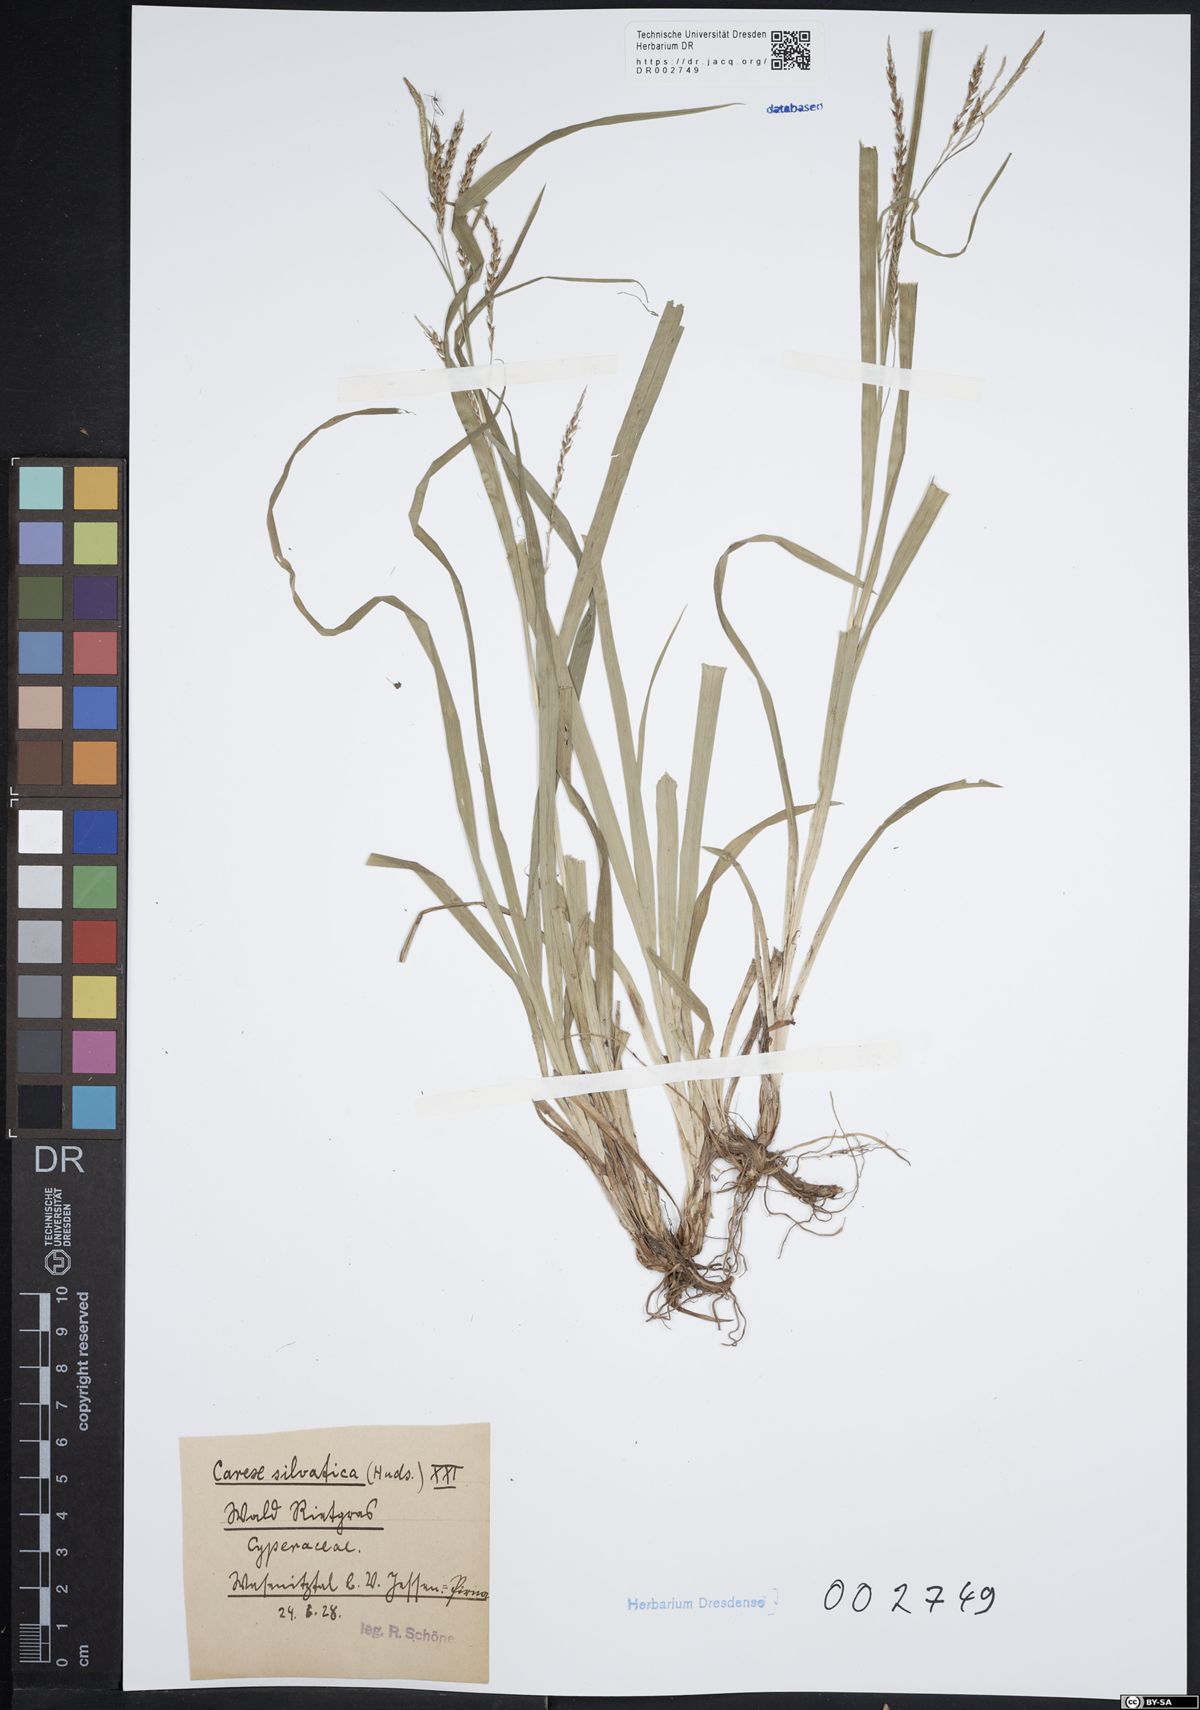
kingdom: Plantae
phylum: Tracheophyta
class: Liliopsida
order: Poales
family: Cyperaceae
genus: Carex
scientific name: Carex caryophyllea
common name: Spring sedge
